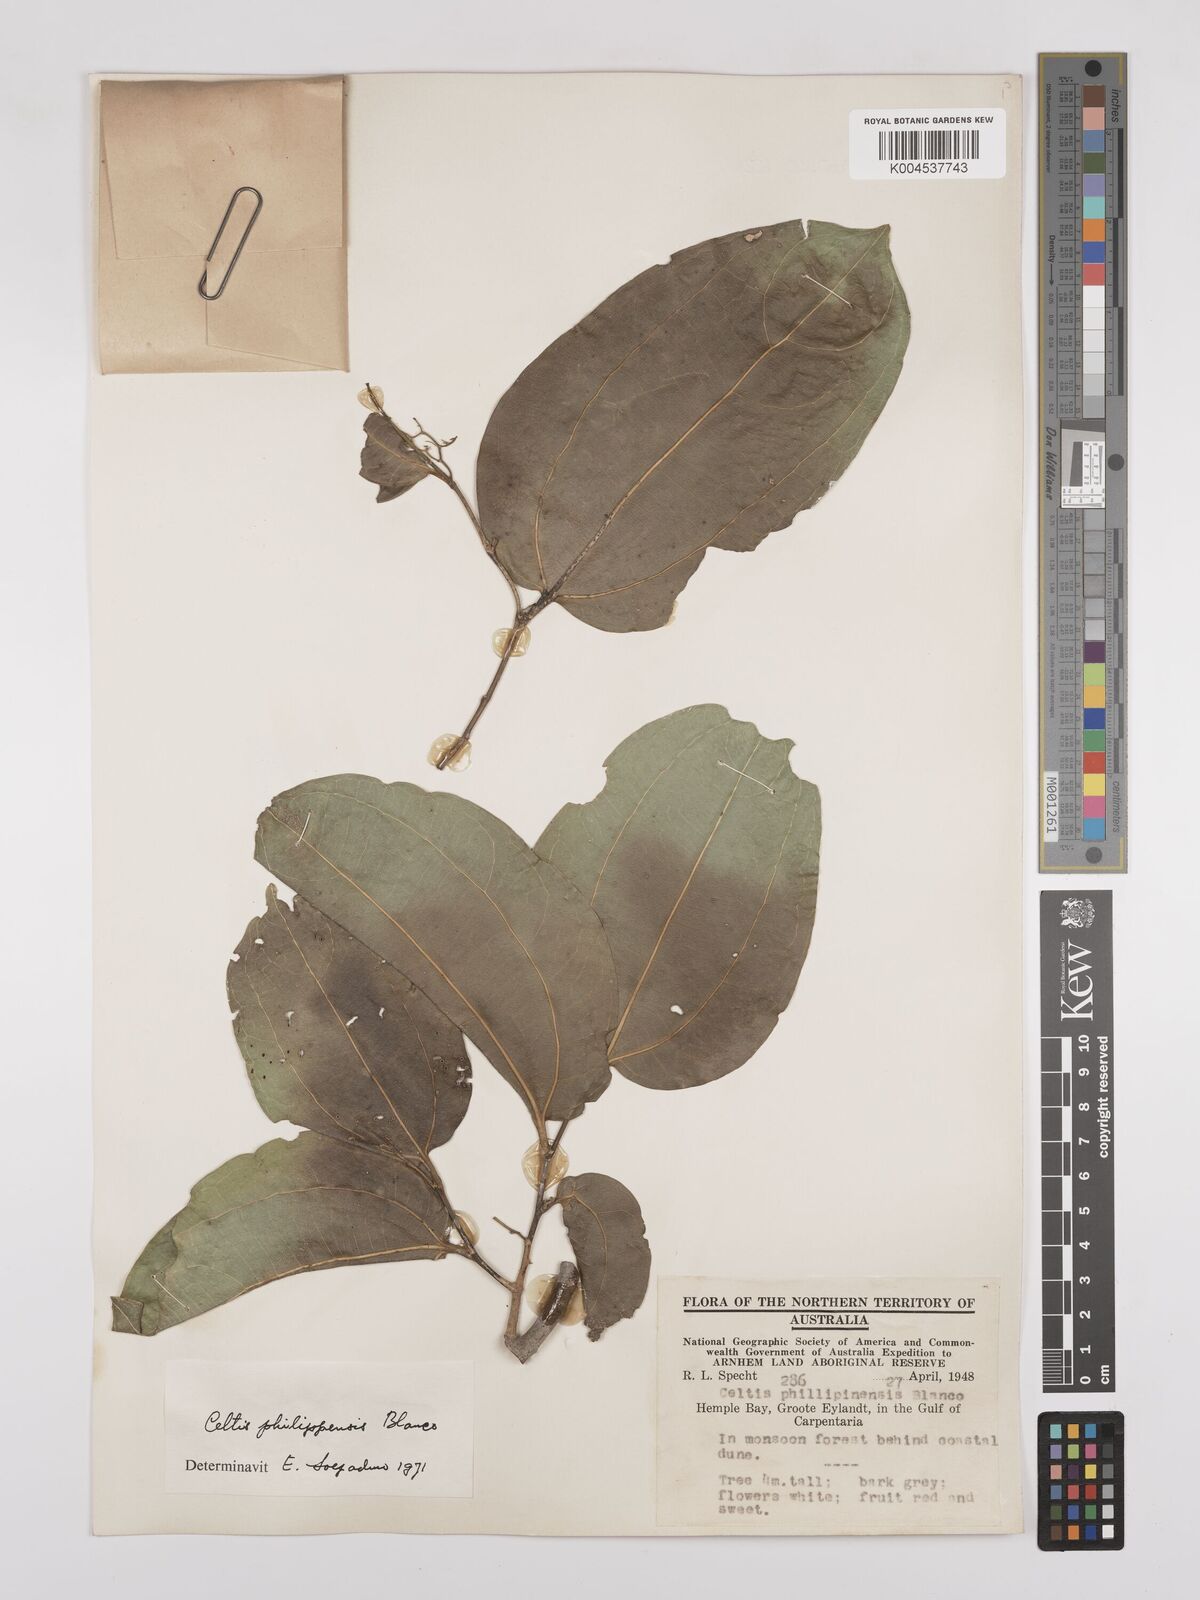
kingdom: Plantae
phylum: Tracheophyta
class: Magnoliopsida
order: Rosales
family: Cannabaceae
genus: Celtis
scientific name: Celtis philippensis
